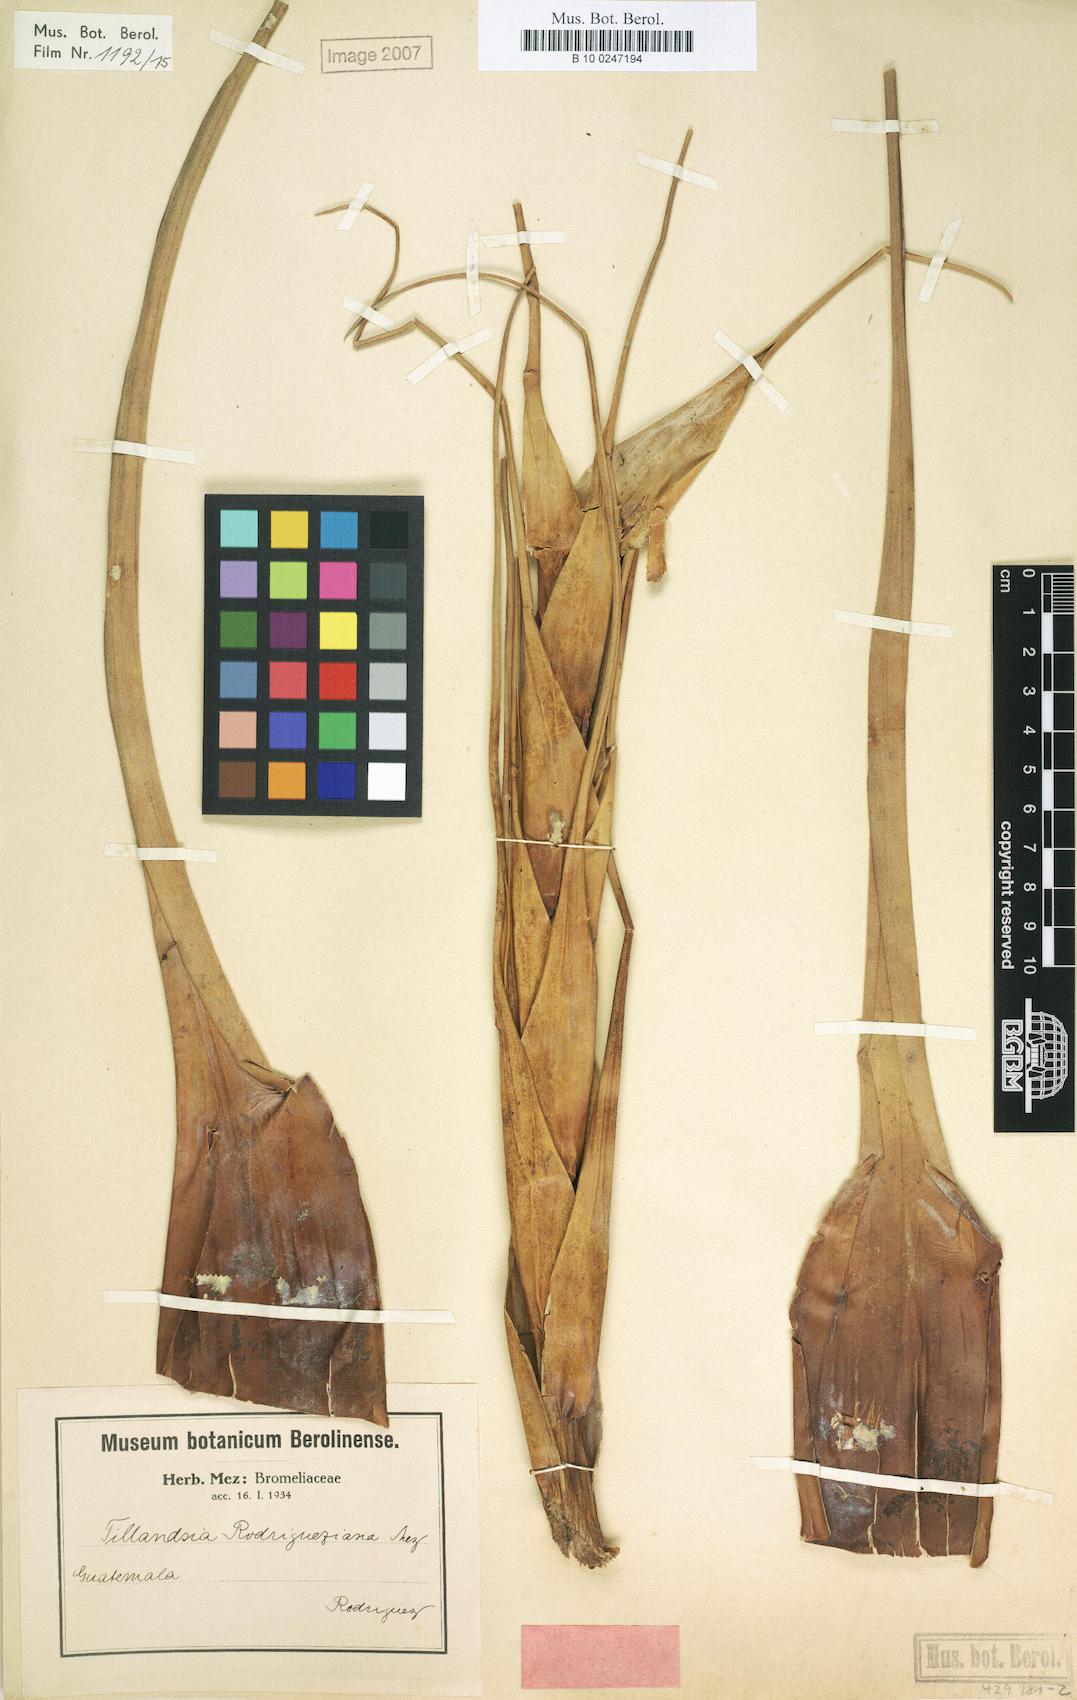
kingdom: Plantae
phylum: Tracheophyta
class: Liliopsida
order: Poales
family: Bromeliaceae
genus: Tillandsia
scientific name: Tillandsia rodrigueziana
